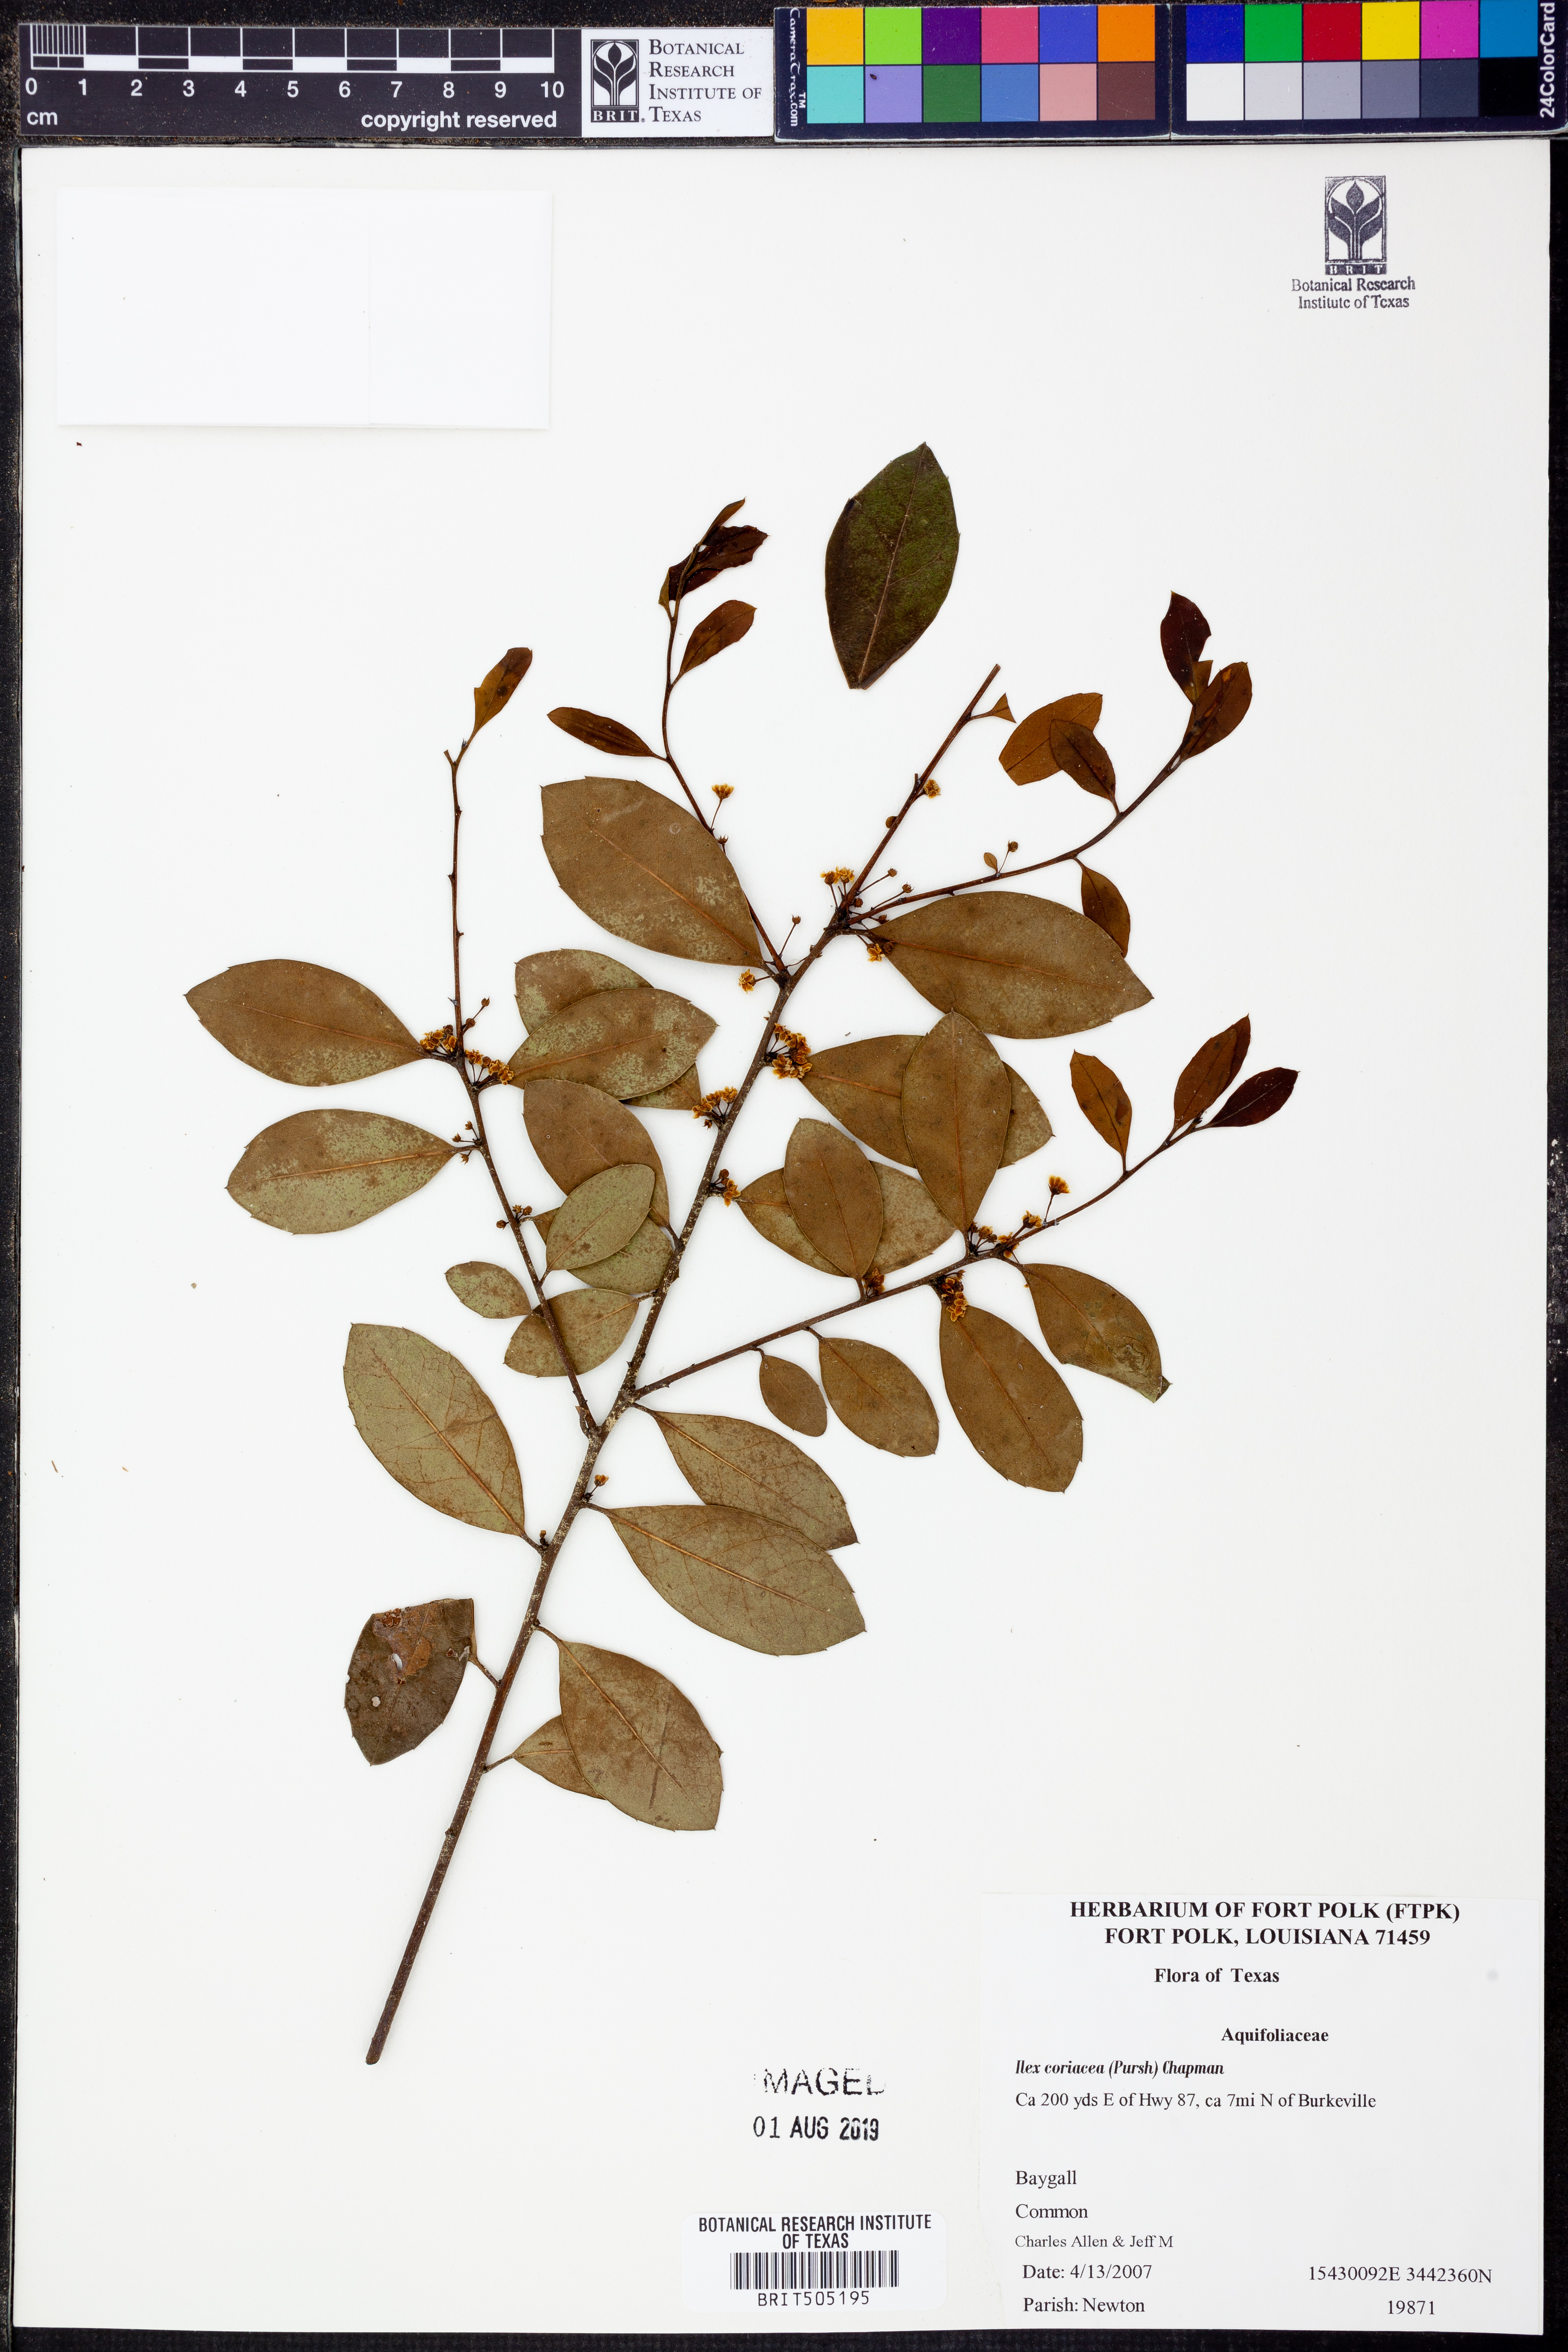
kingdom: Plantae
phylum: Tracheophyta
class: Magnoliopsida
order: Aquifoliales
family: Aquifoliaceae
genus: Ilex
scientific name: Ilex coriacea
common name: Sweet gallberry
